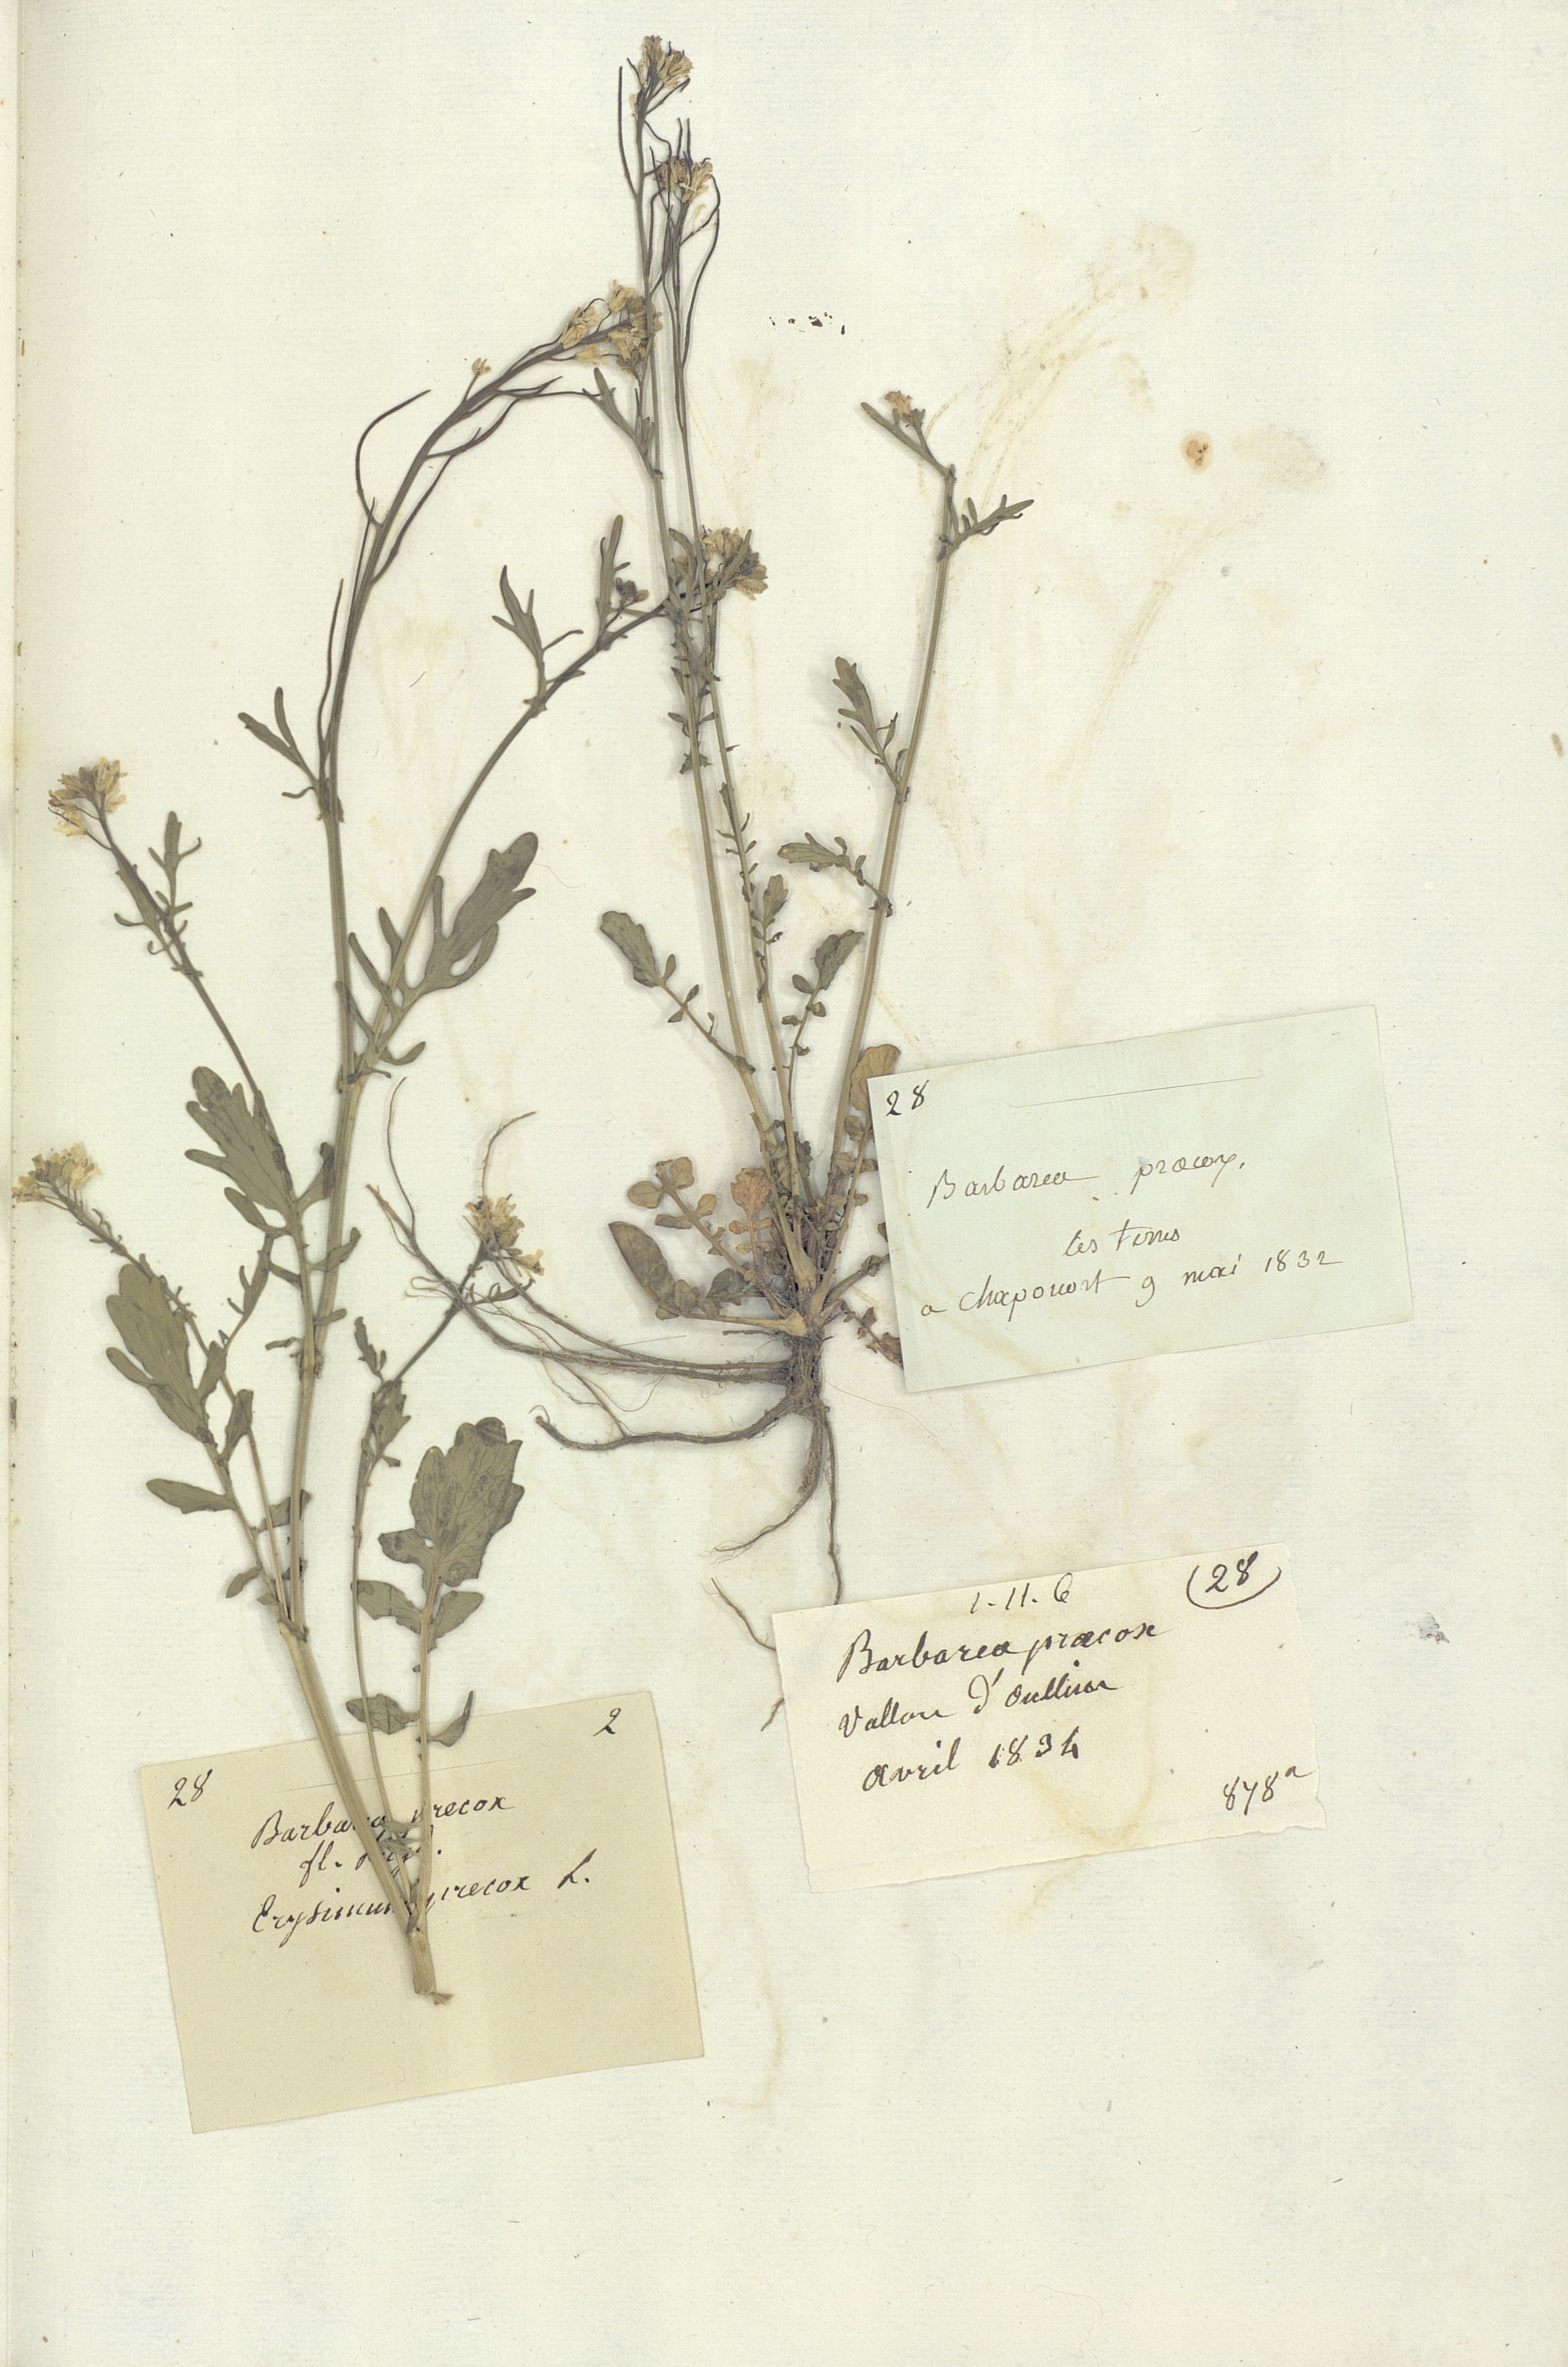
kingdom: Plantae
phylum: Tracheophyta
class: Magnoliopsida
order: Brassicales
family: Brassicaceae
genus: Barbarea
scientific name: Barbarea verna
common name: American cress
